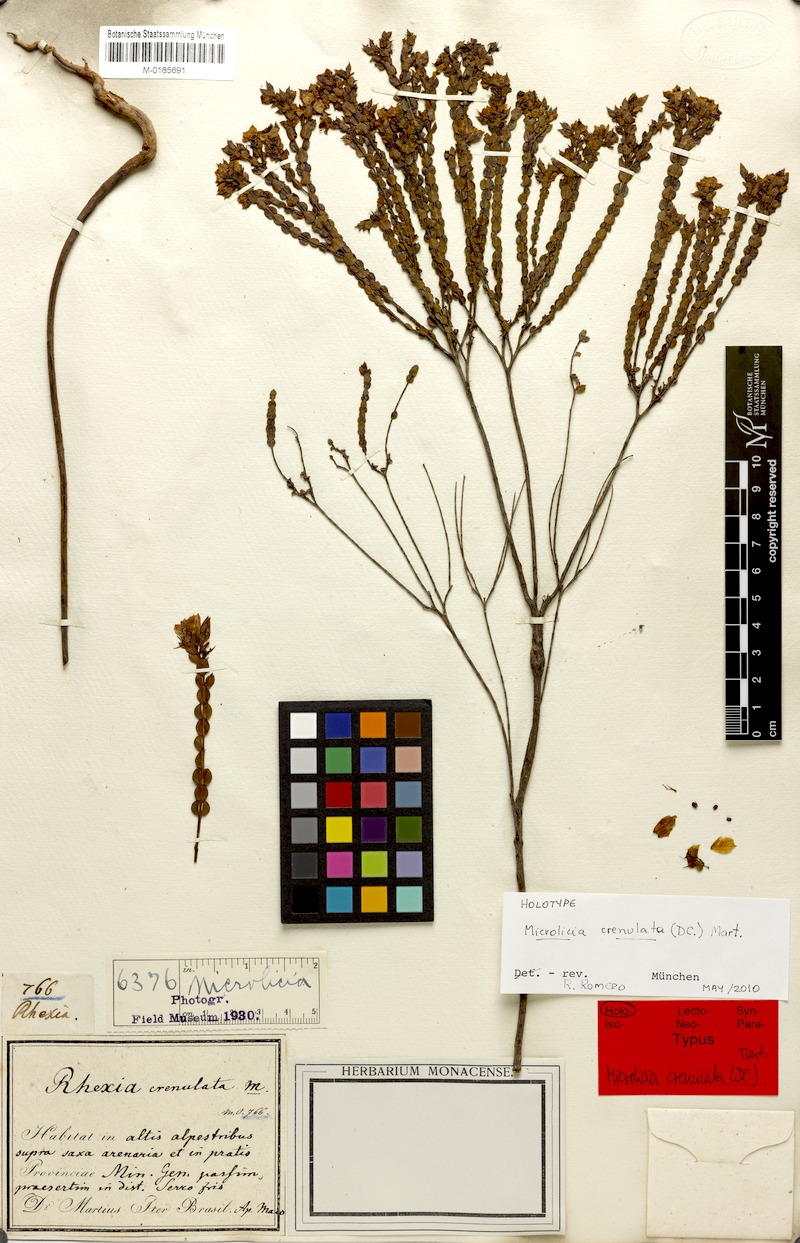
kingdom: Plantae
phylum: Tracheophyta
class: Magnoliopsida
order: Myrtales
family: Melastomataceae
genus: Microlicia
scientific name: Microlicia crenulata
